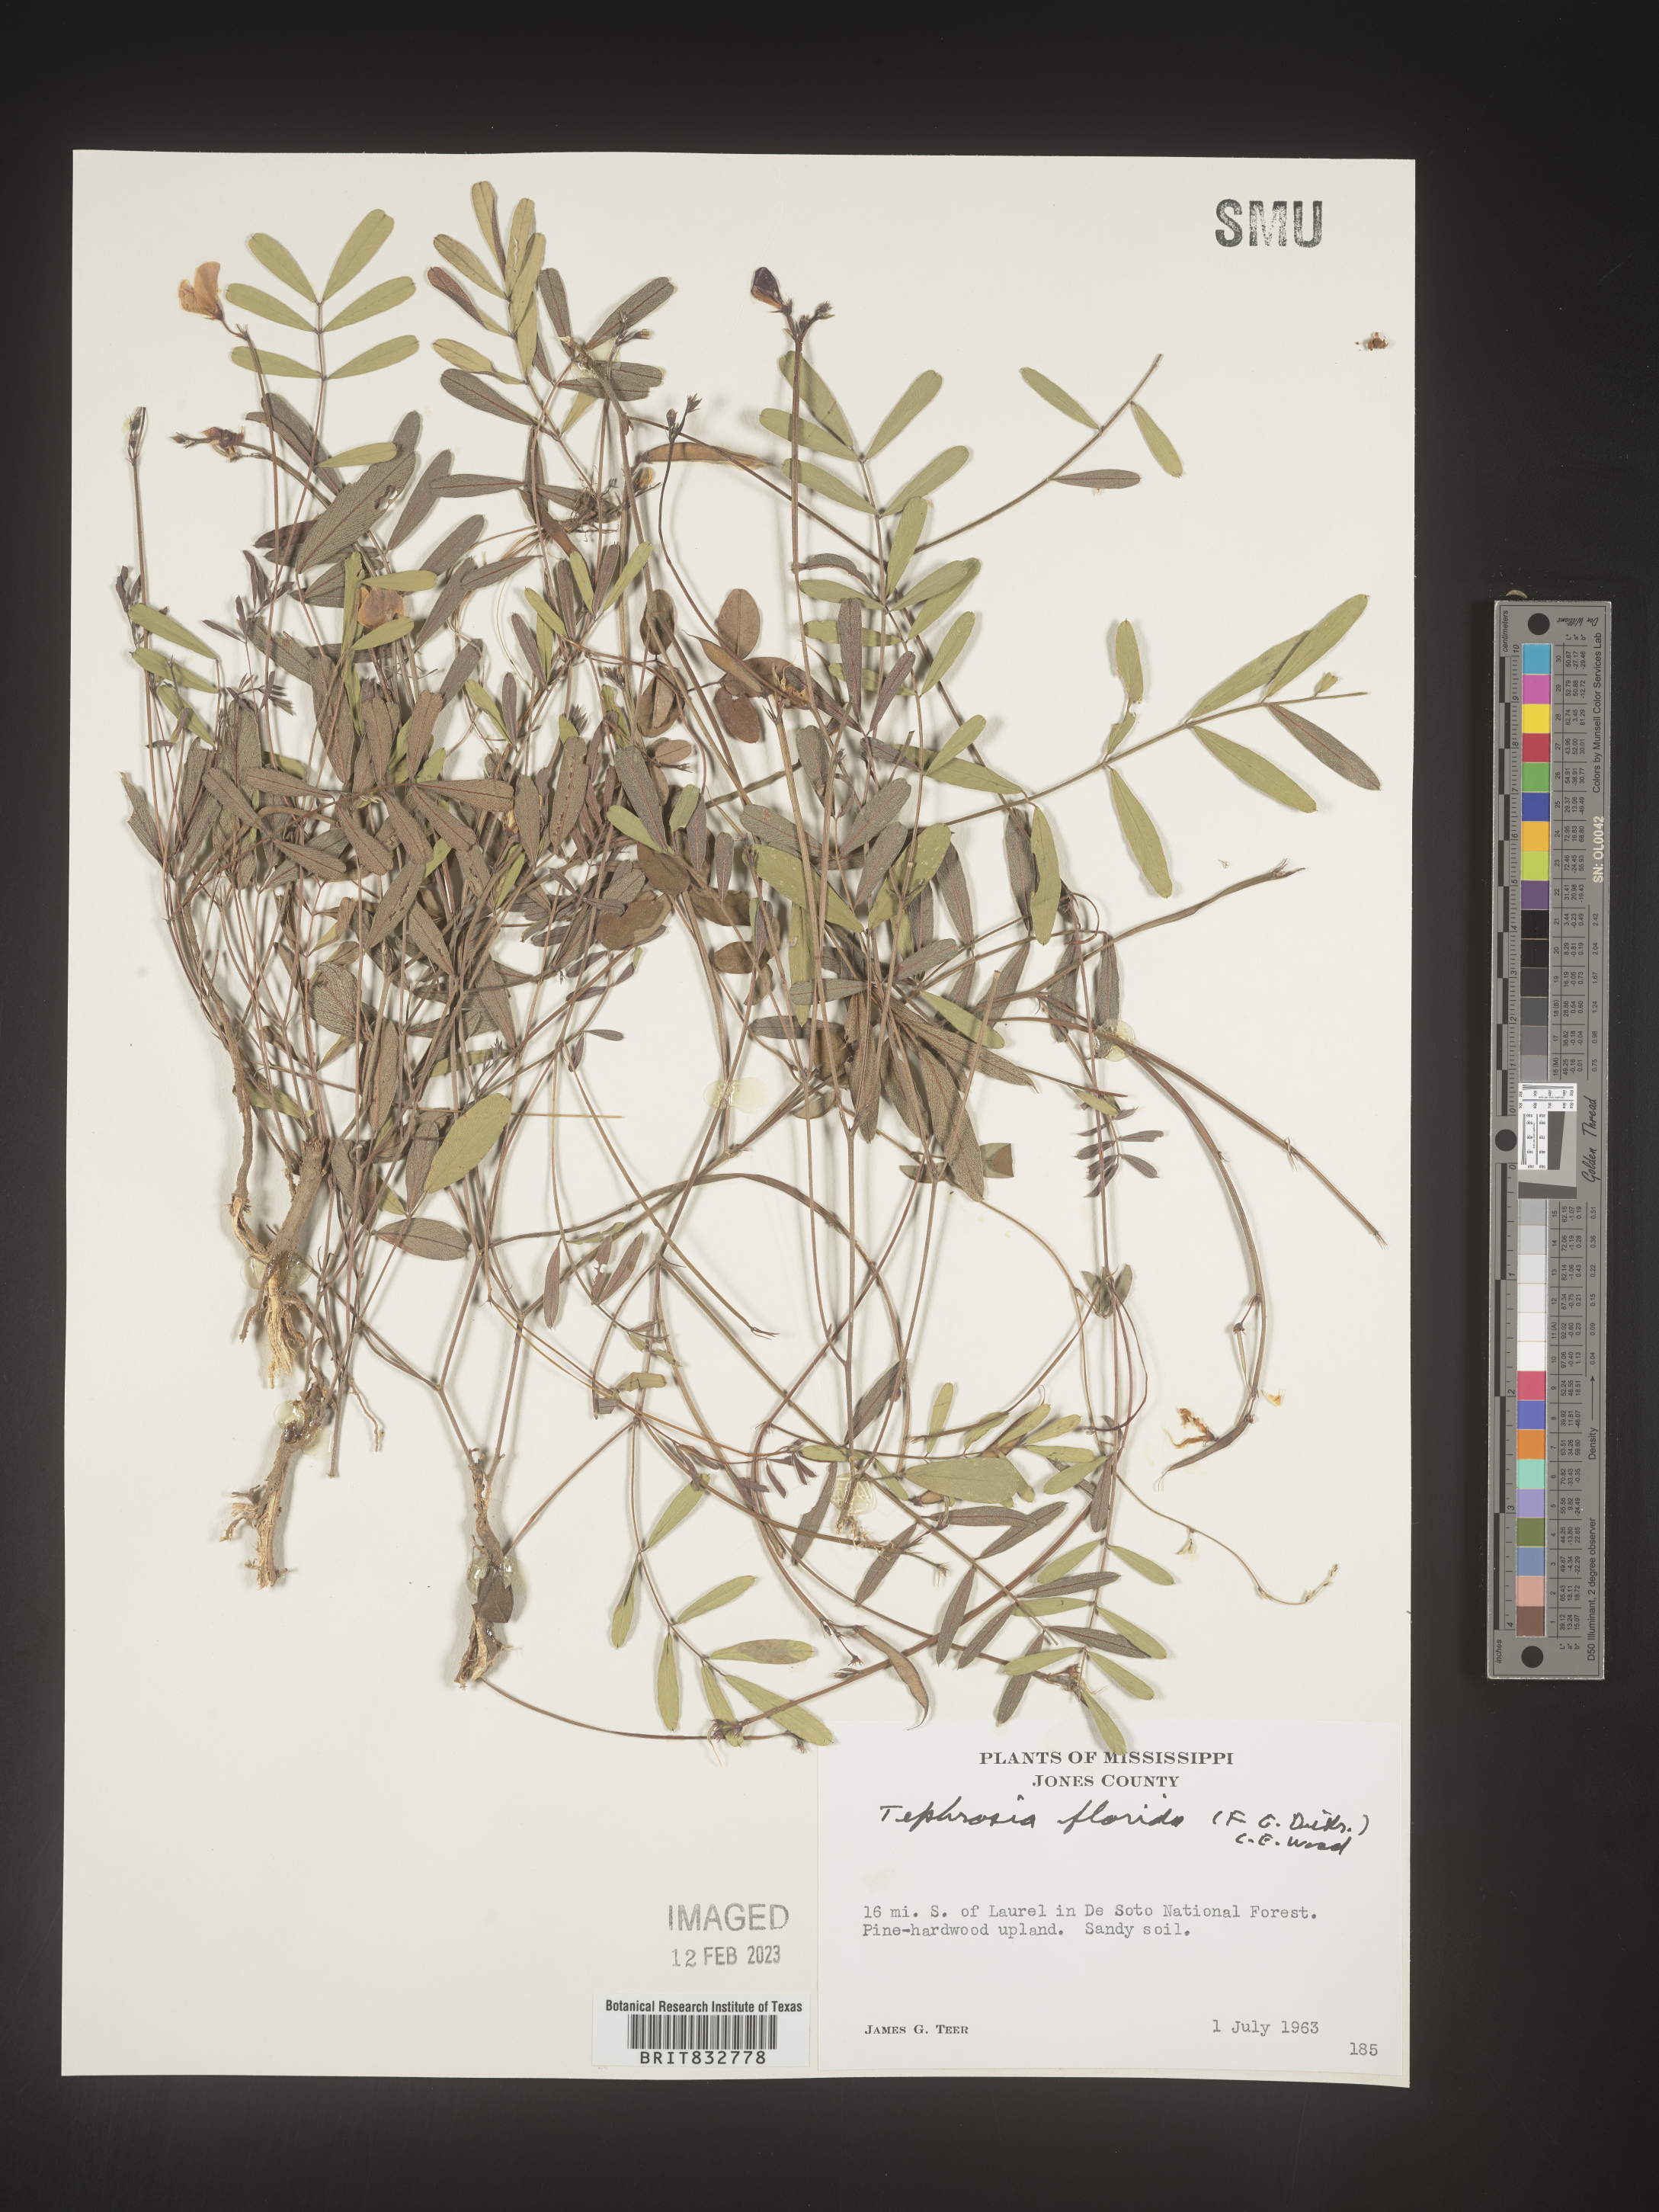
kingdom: Plantae
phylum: Tracheophyta
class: Magnoliopsida
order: Fabales
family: Fabaceae
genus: Tephrosia
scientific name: Tephrosia florida
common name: Florida hoary-pea
